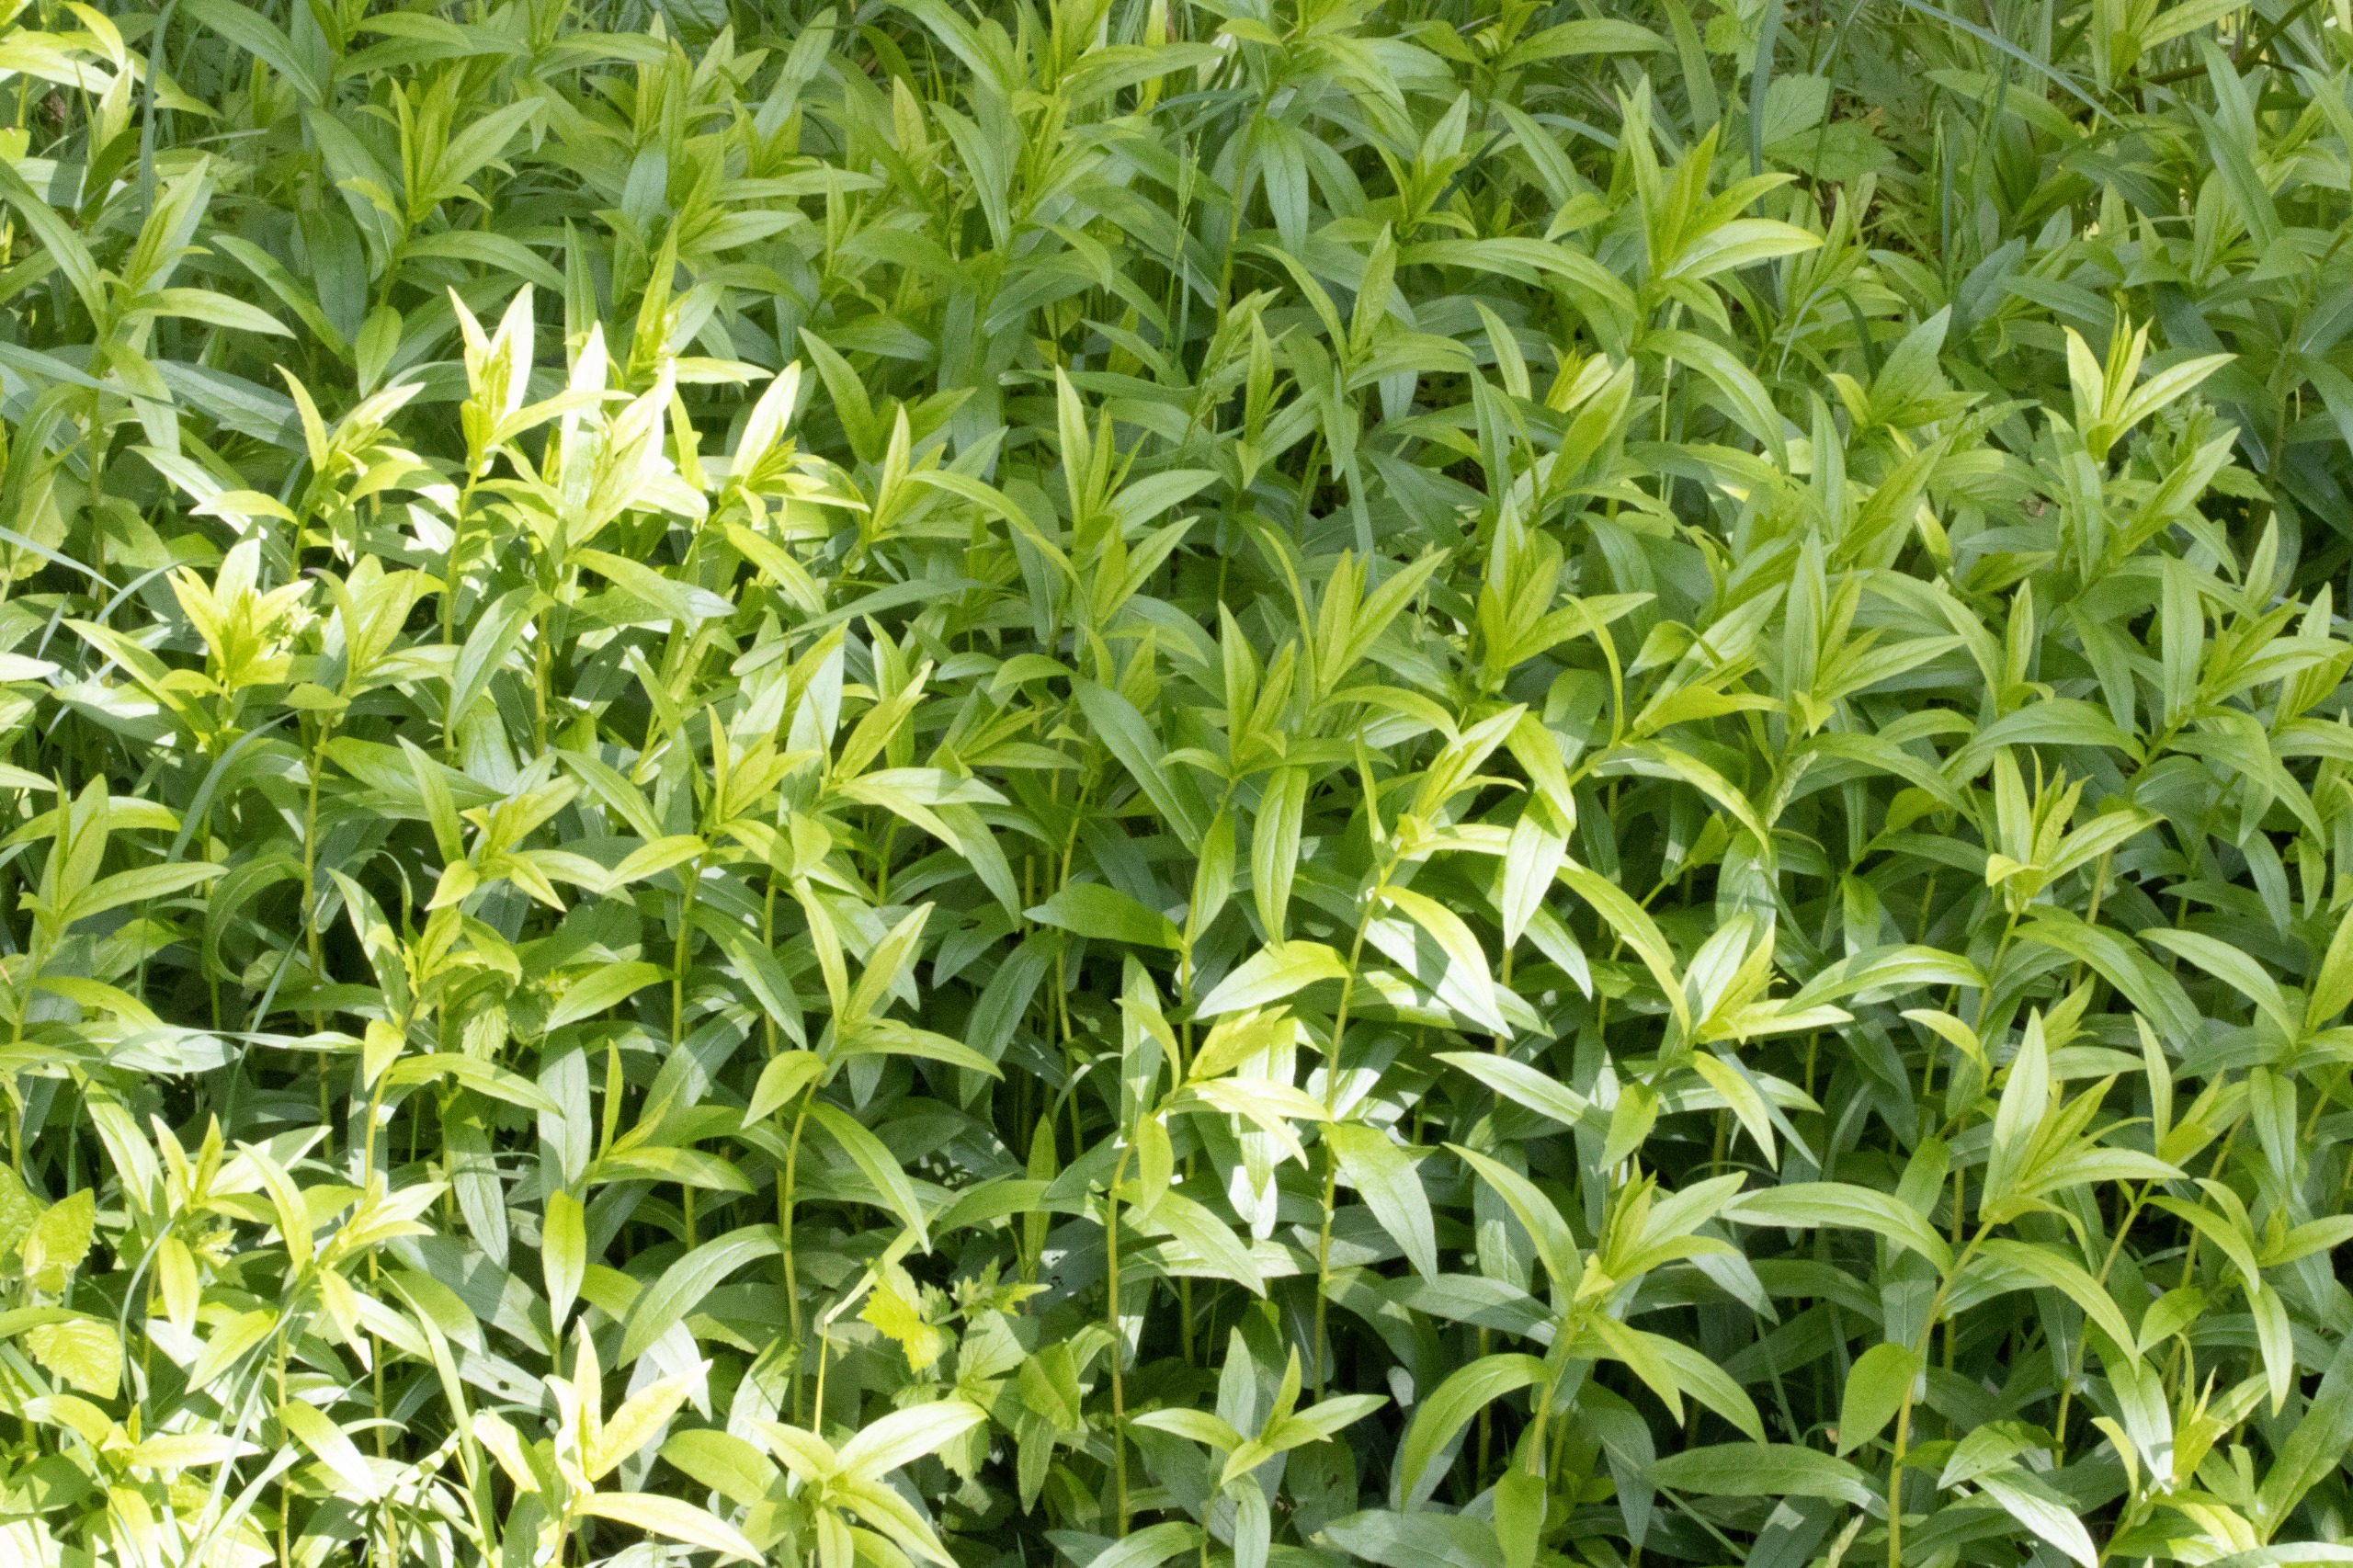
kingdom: Plantae
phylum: Tracheophyta
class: Magnoliopsida
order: Asterales
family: Asteraceae
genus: Pentanema
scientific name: Pentanema salicinum
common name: Pile-alant
